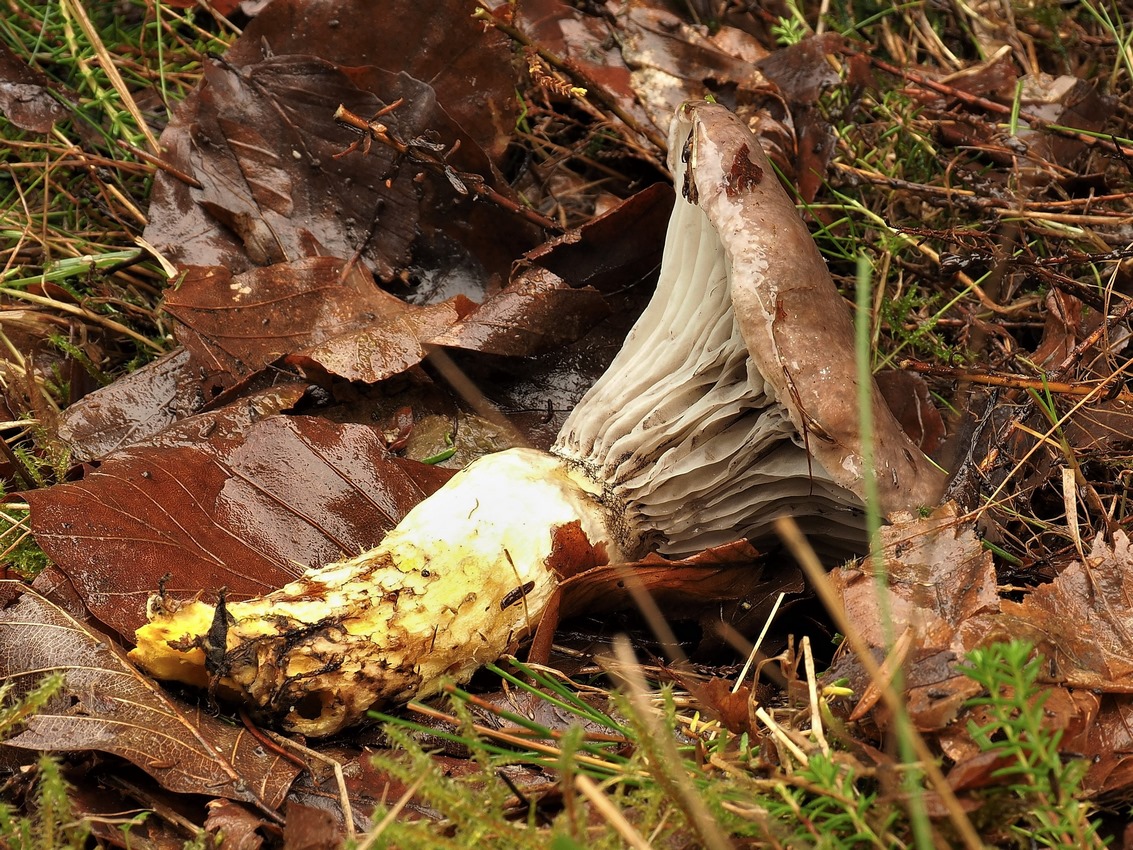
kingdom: Fungi
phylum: Basidiomycota
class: Agaricomycetes
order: Boletales
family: Gomphidiaceae
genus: Gomphidius
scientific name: Gomphidius glutinosus
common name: grå slimslør
